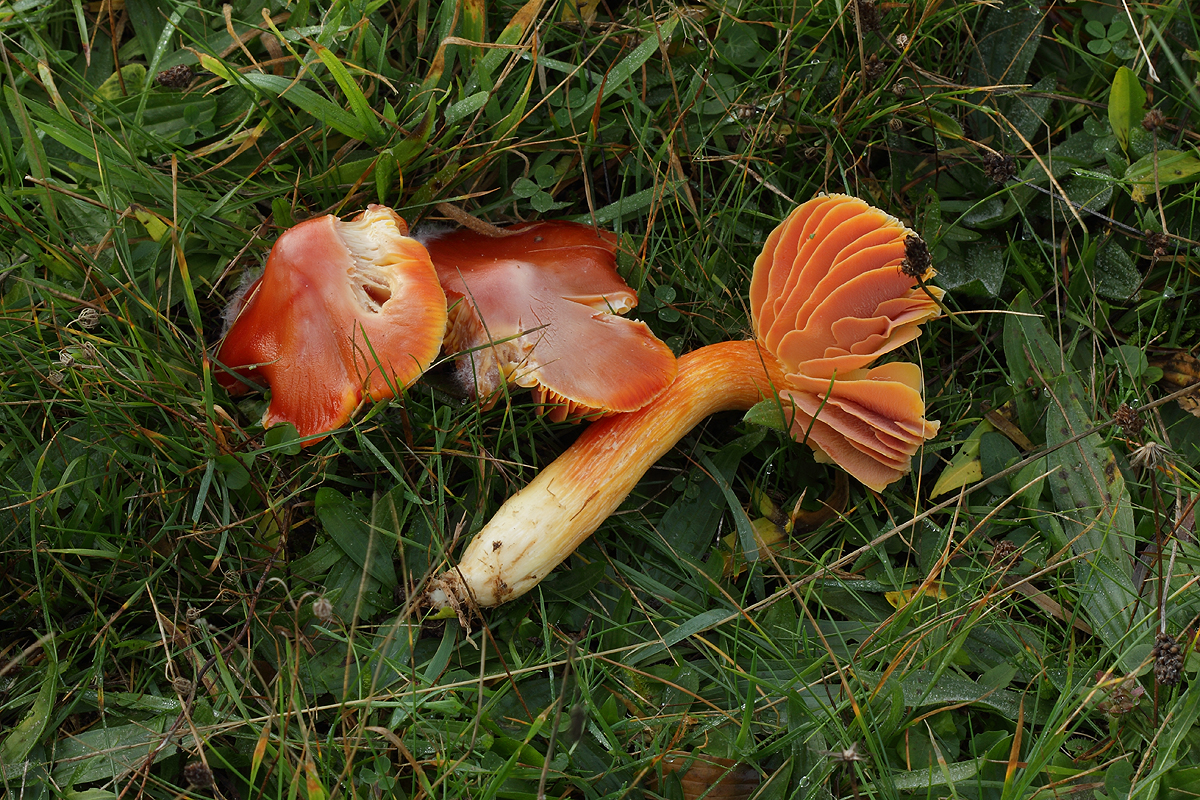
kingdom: Fungi
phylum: Basidiomycota
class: Agaricomycetes
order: Agaricales
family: Hygrophoraceae
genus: Hygrocybe
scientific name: Hygrocybe punicea
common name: skarlagen-vokshat
